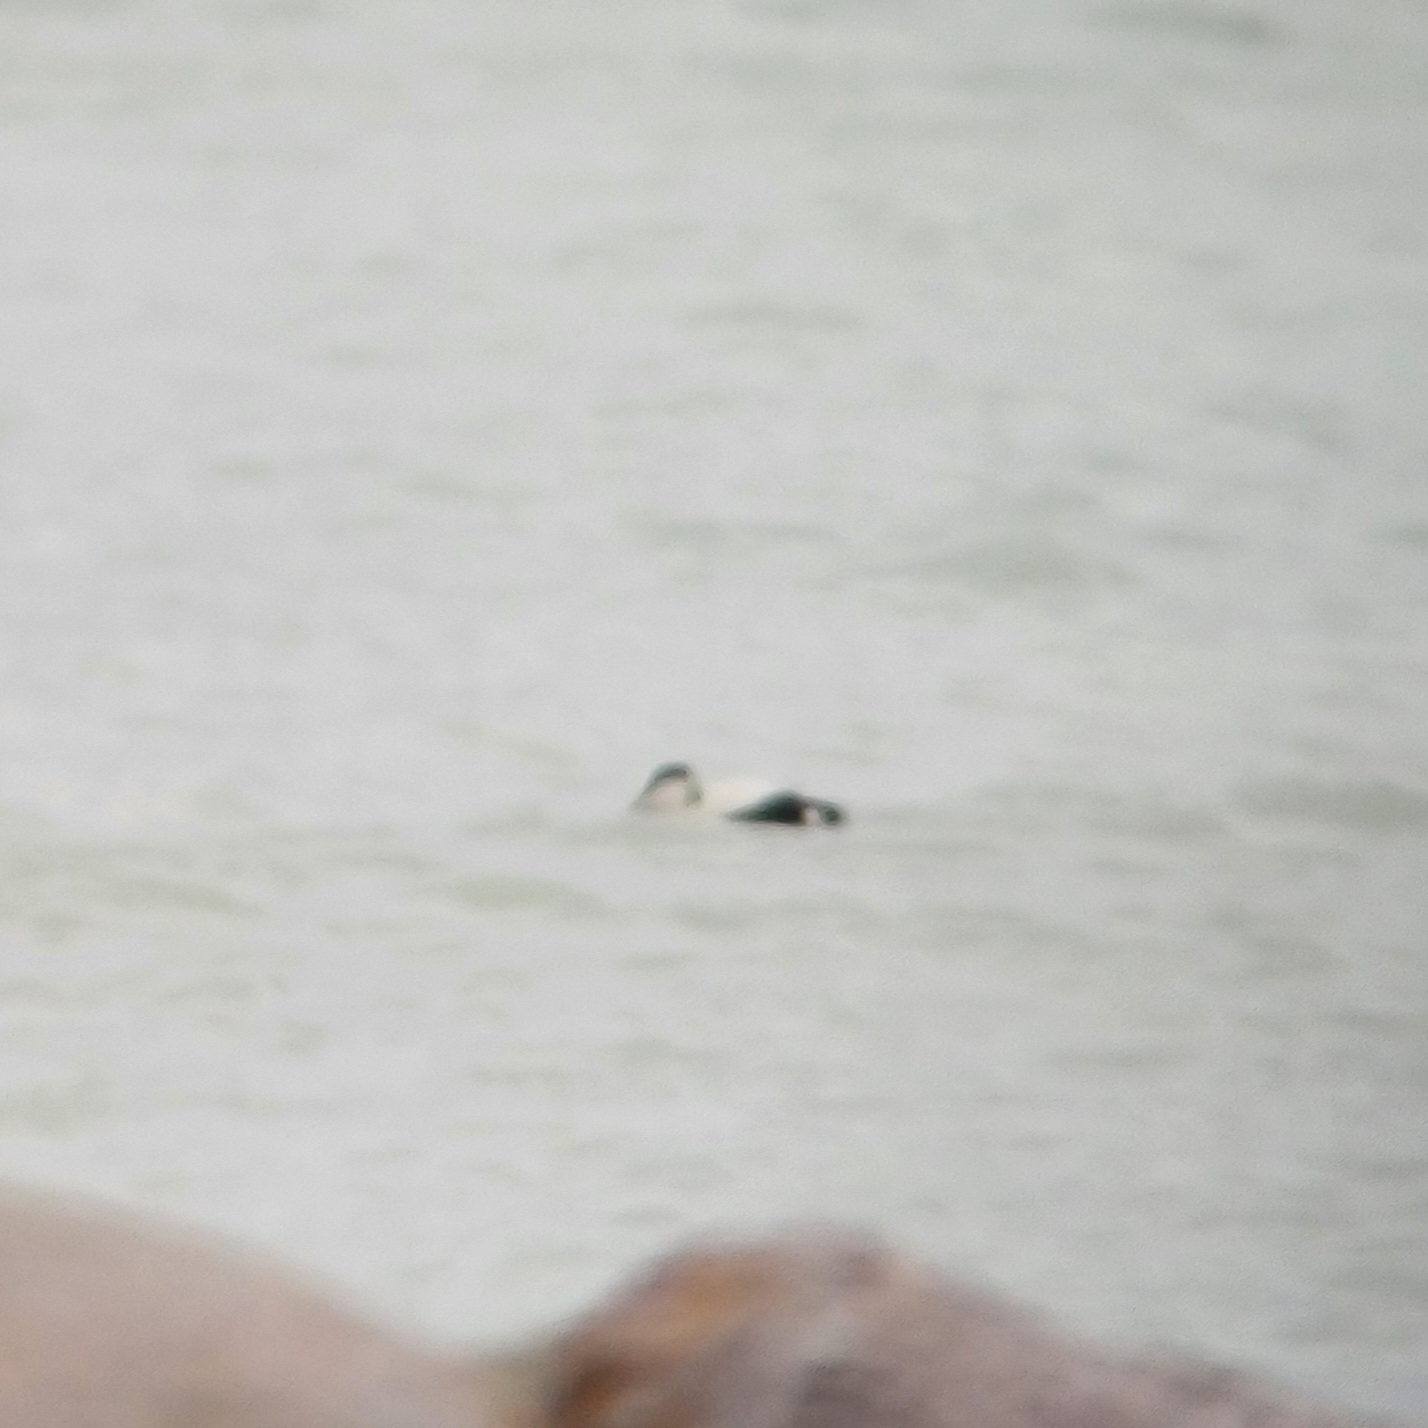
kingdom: Animalia
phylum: Chordata
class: Aves
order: Anseriformes
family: Anatidae
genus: Somateria
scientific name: Somateria mollissima
